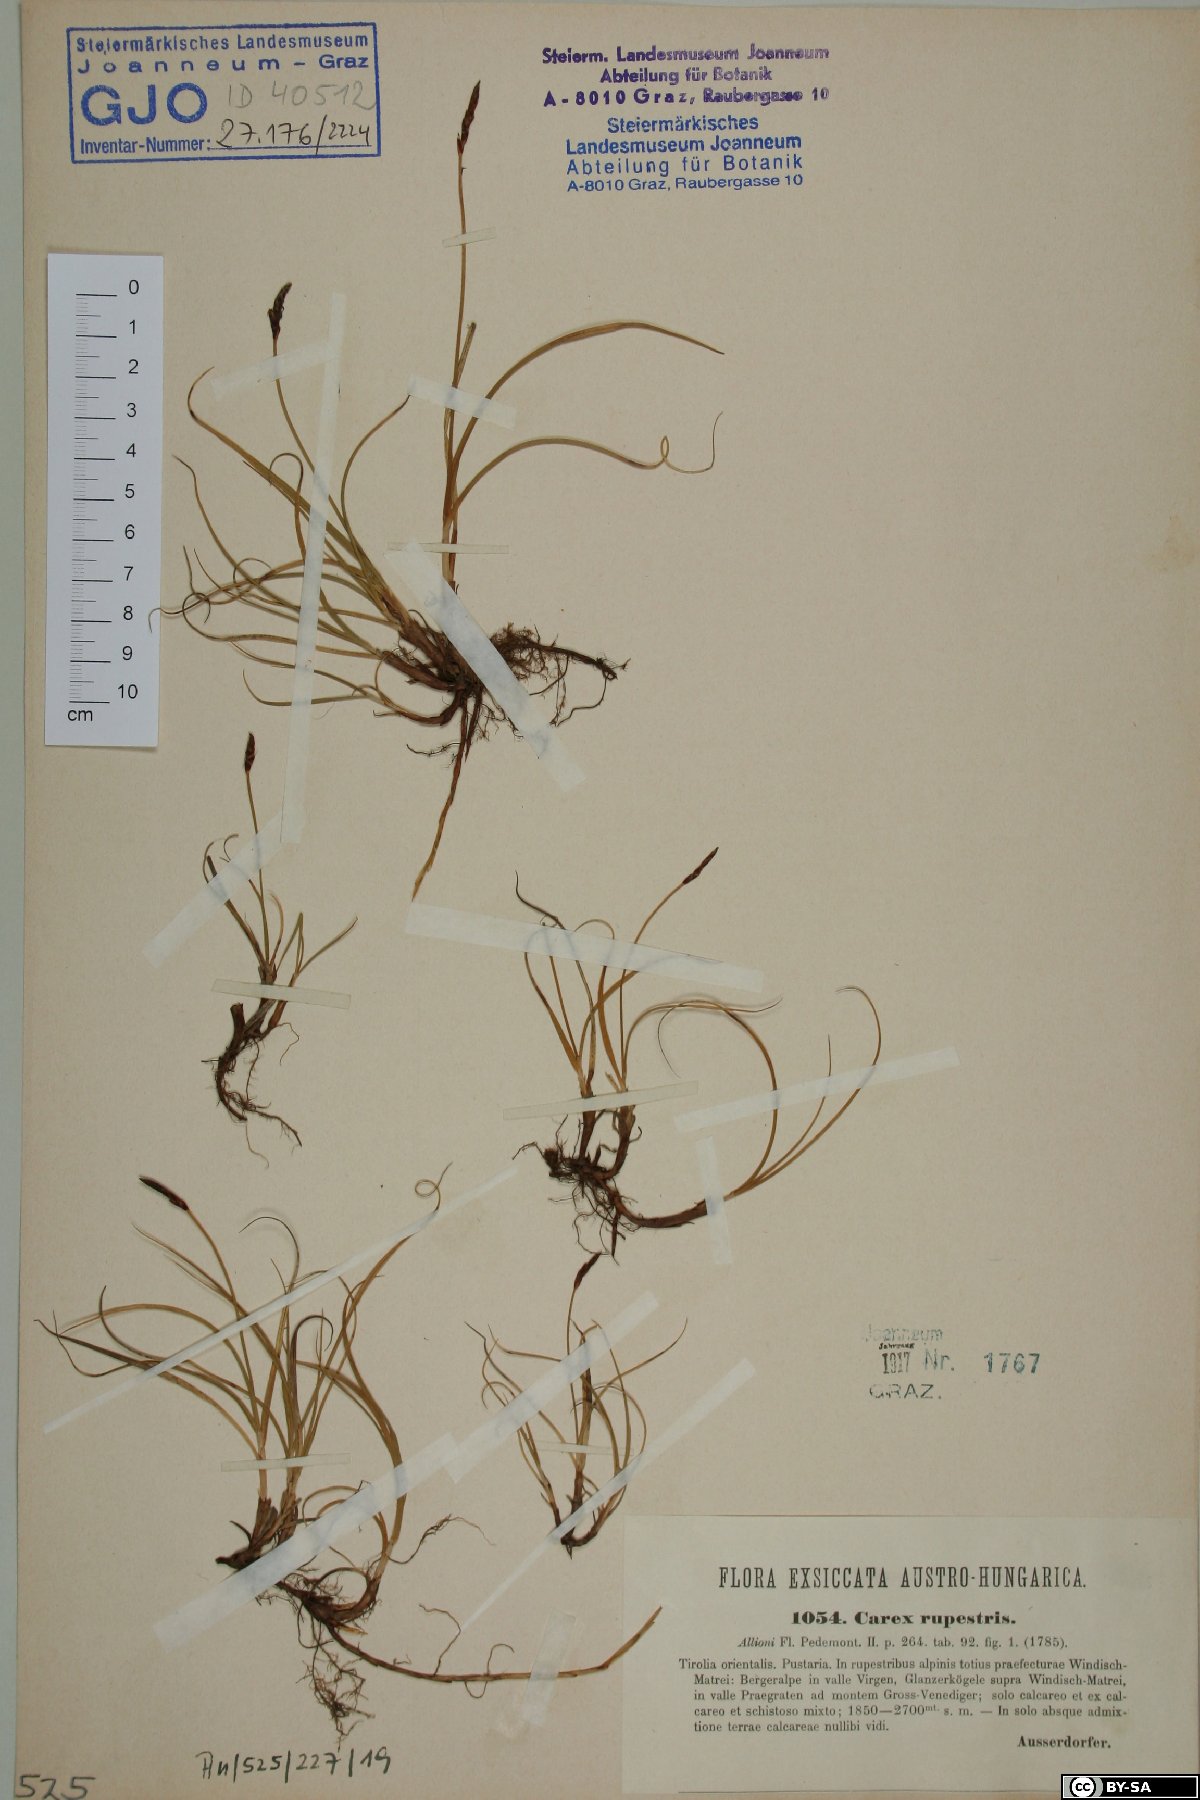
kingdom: Plantae
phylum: Tracheophyta
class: Liliopsida
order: Poales
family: Cyperaceae
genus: Carex
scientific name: Carex rupestris
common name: Rock sedge
